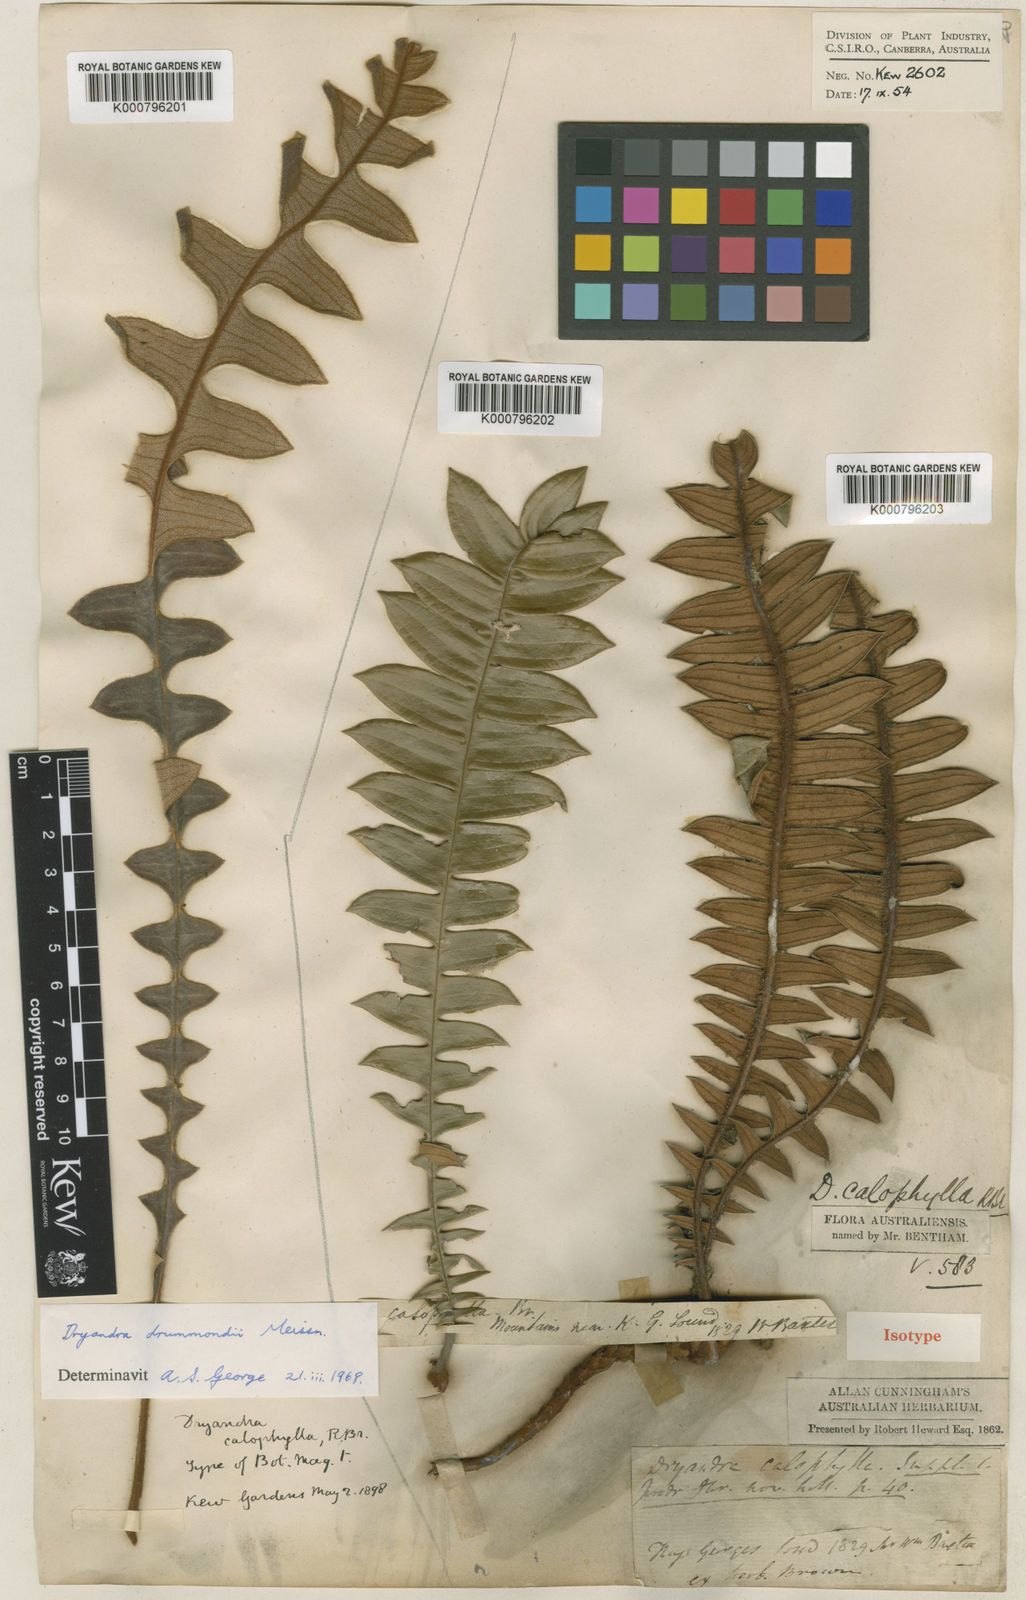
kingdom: Plantae
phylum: Tracheophyta
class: Magnoliopsida
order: Proteales
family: Proteaceae
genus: Banksia
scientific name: Banksia calophylla
